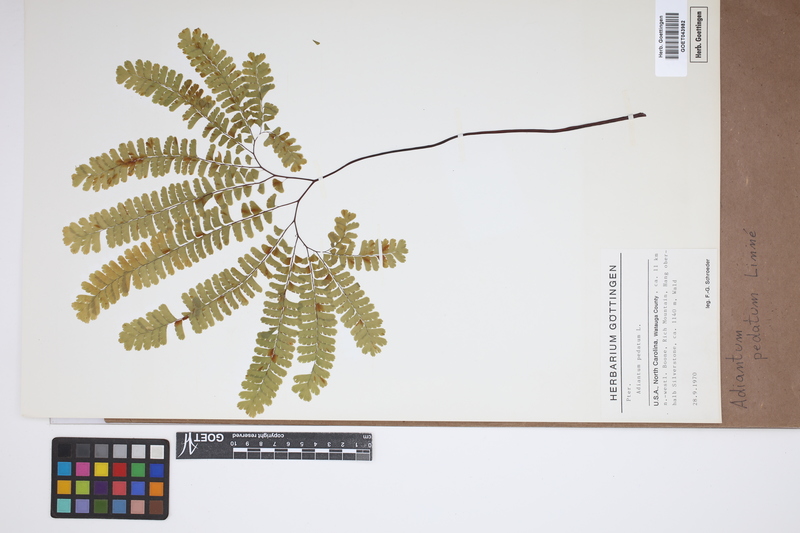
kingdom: Plantae
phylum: Tracheophyta
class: Polypodiopsida
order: Polypodiales
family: Pteridaceae
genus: Adiantum
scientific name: Adiantum pedatum
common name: Five-finger fern
